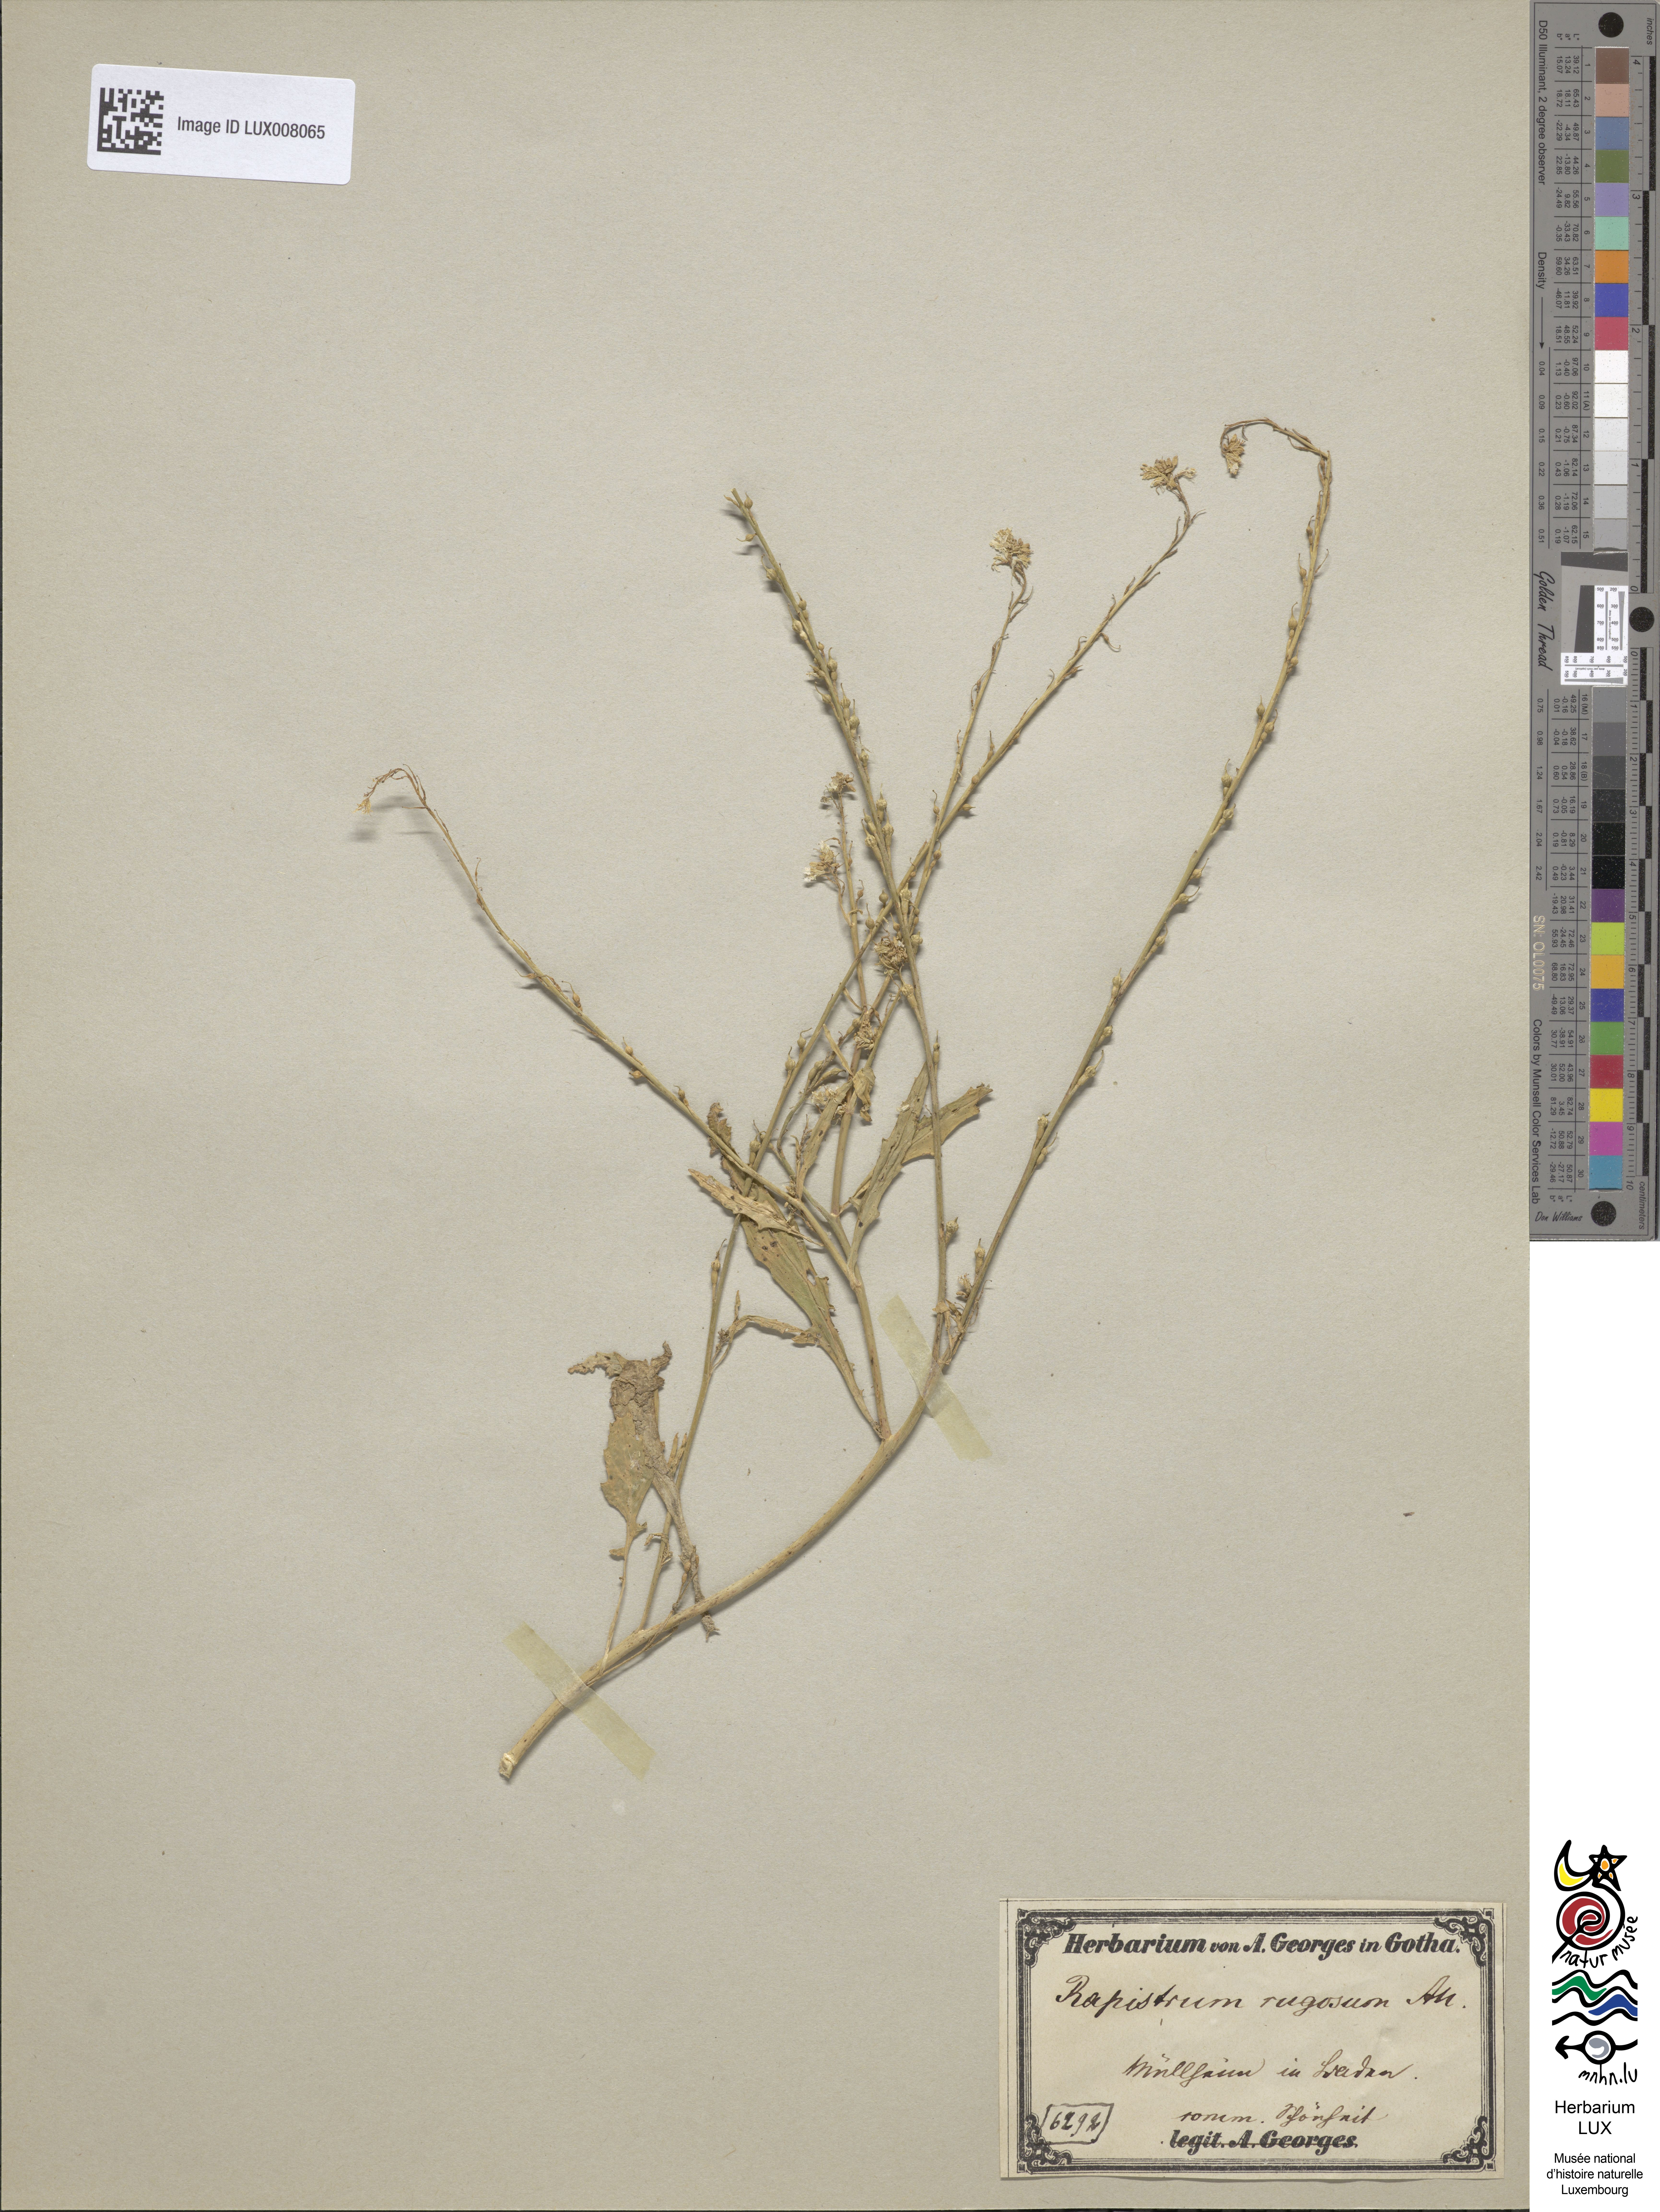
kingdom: Plantae
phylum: Tracheophyta
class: Magnoliopsida
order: Brassicales
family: Brassicaceae
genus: Rapistrum
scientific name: Rapistrum rugosum
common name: Annual bastardcabbage
